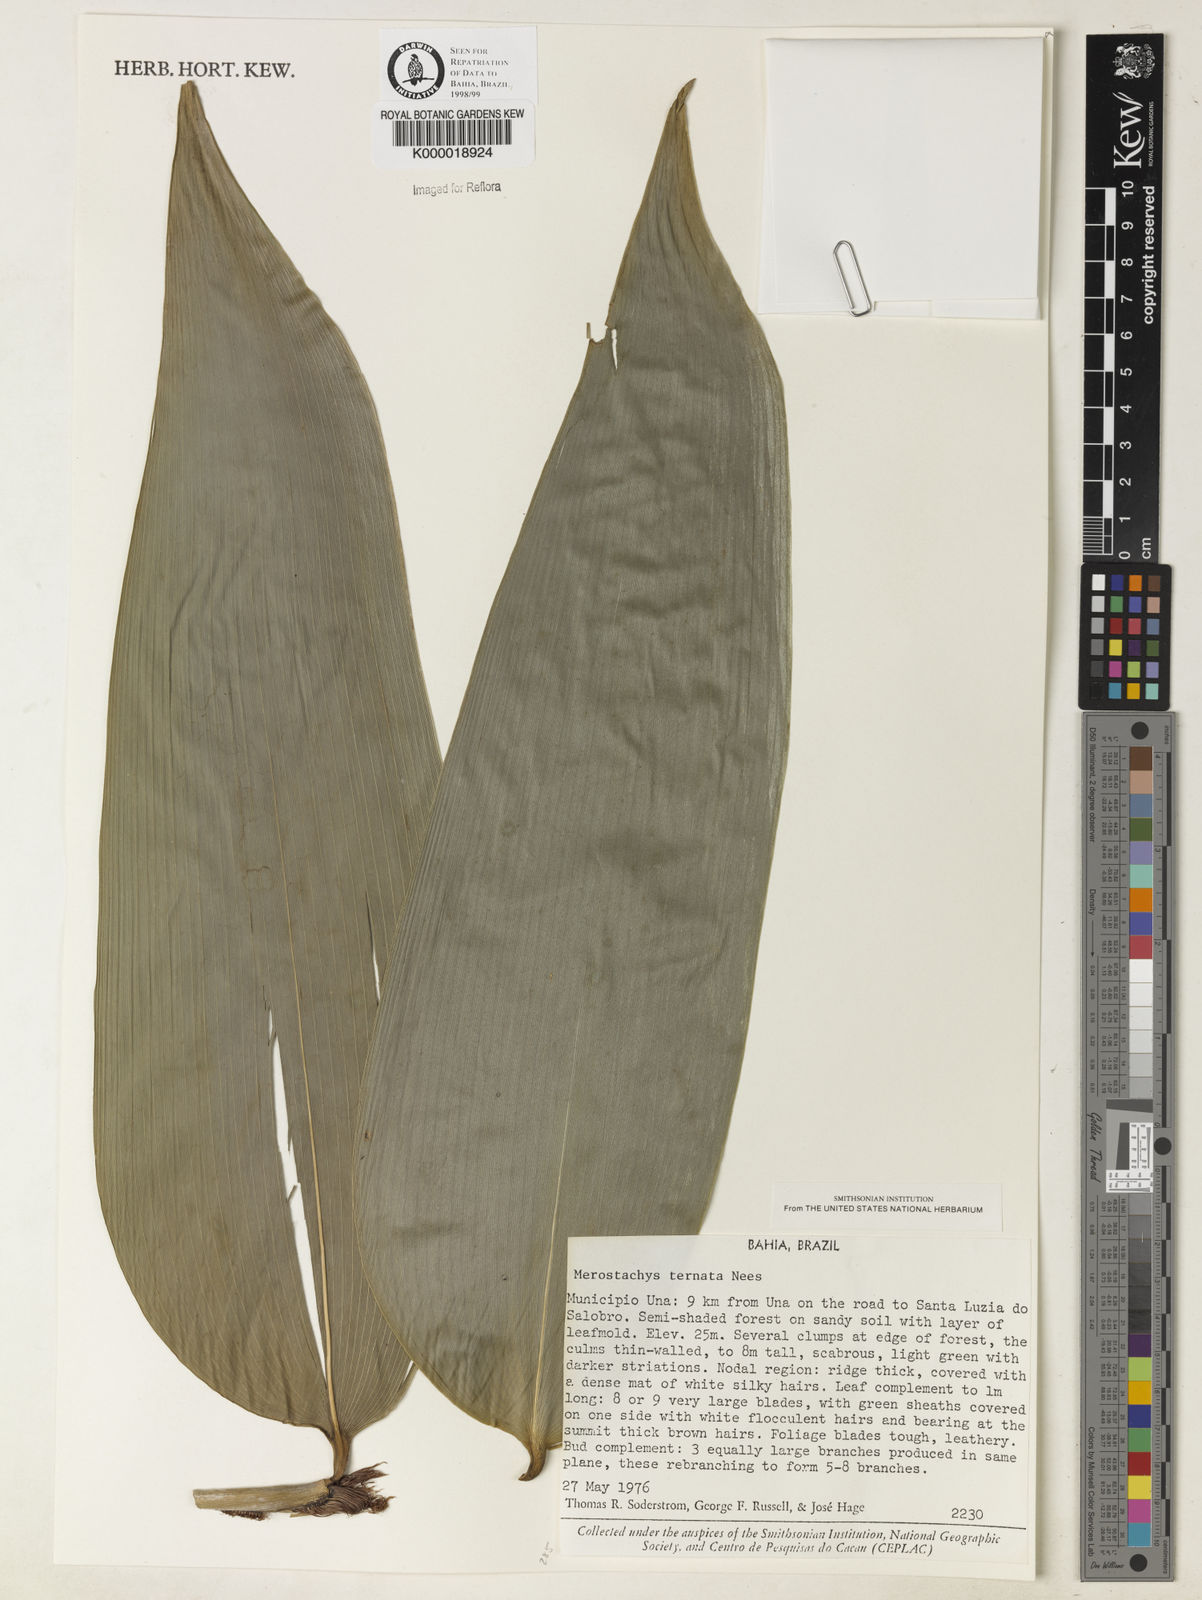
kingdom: Plantae
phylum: Tracheophyta
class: Liliopsida
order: Poales
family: Poaceae
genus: Merostachys
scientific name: Merostachys ternata
